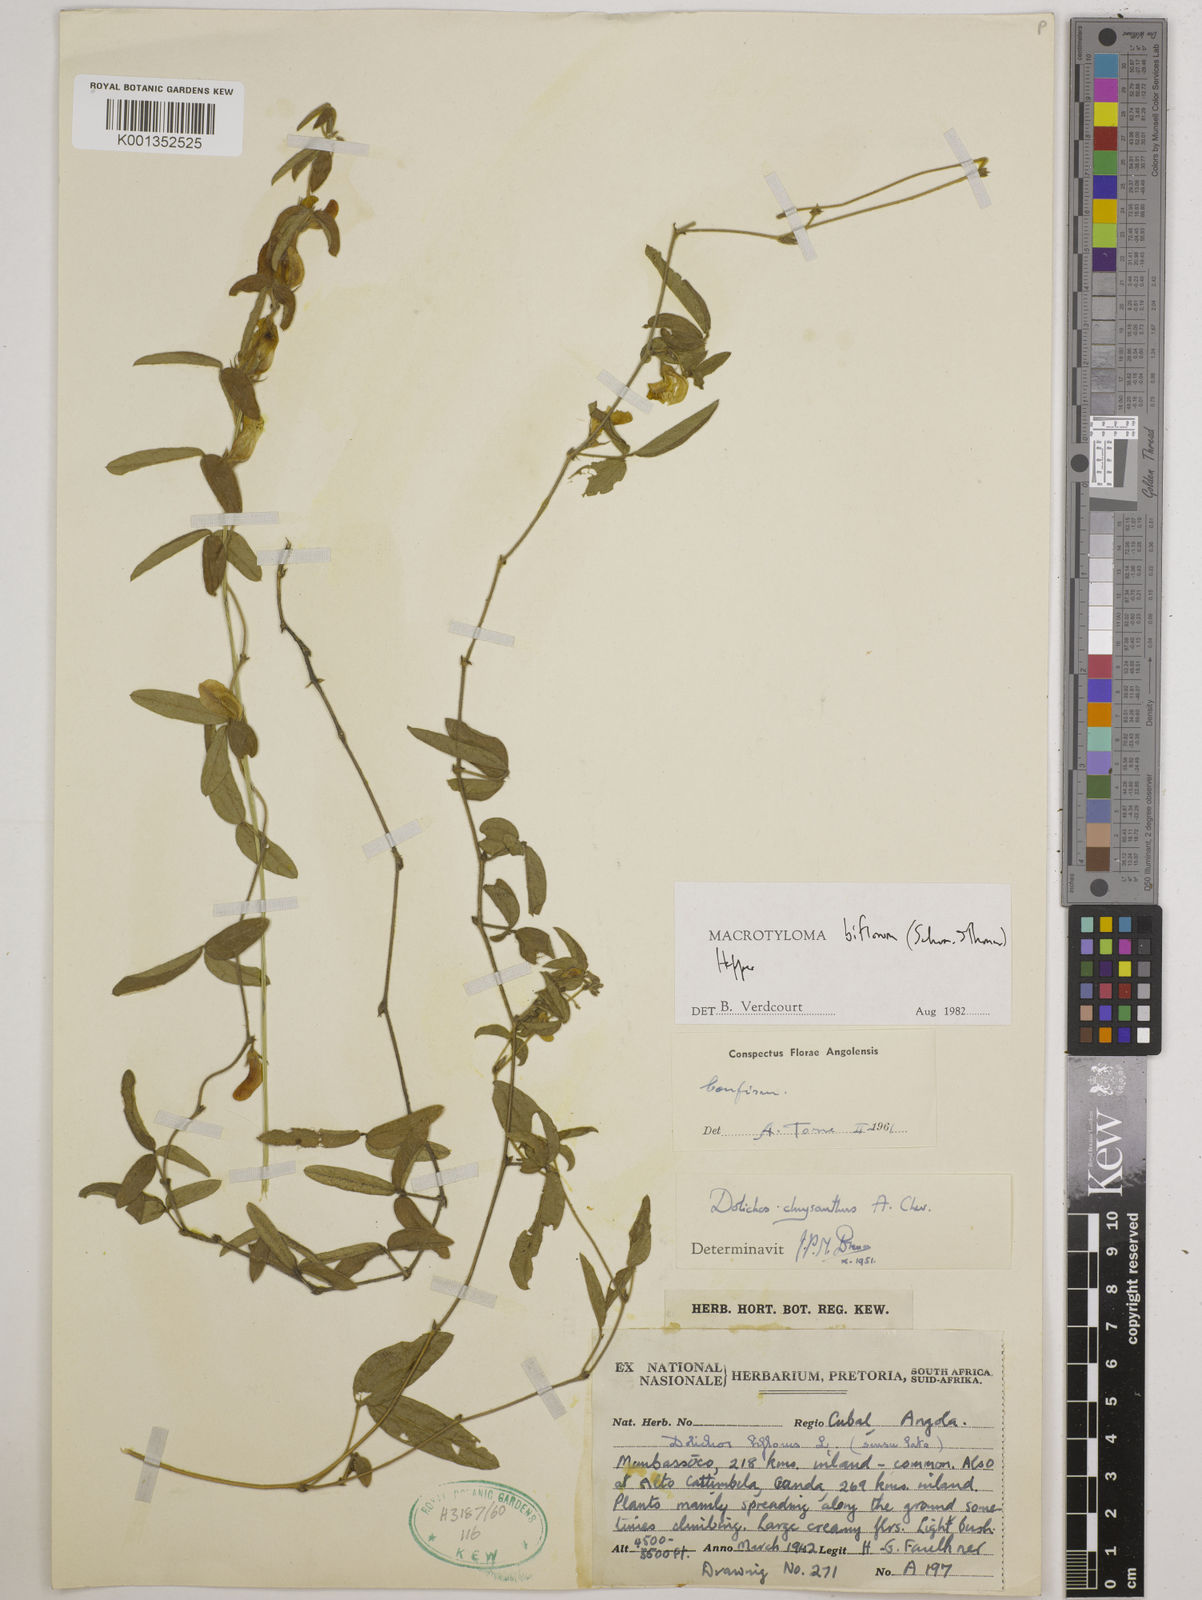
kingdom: Plantae
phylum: Tracheophyta
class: Magnoliopsida
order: Fabales
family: Fabaceae
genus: Macrotyloma
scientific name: Macrotyloma biflorum
